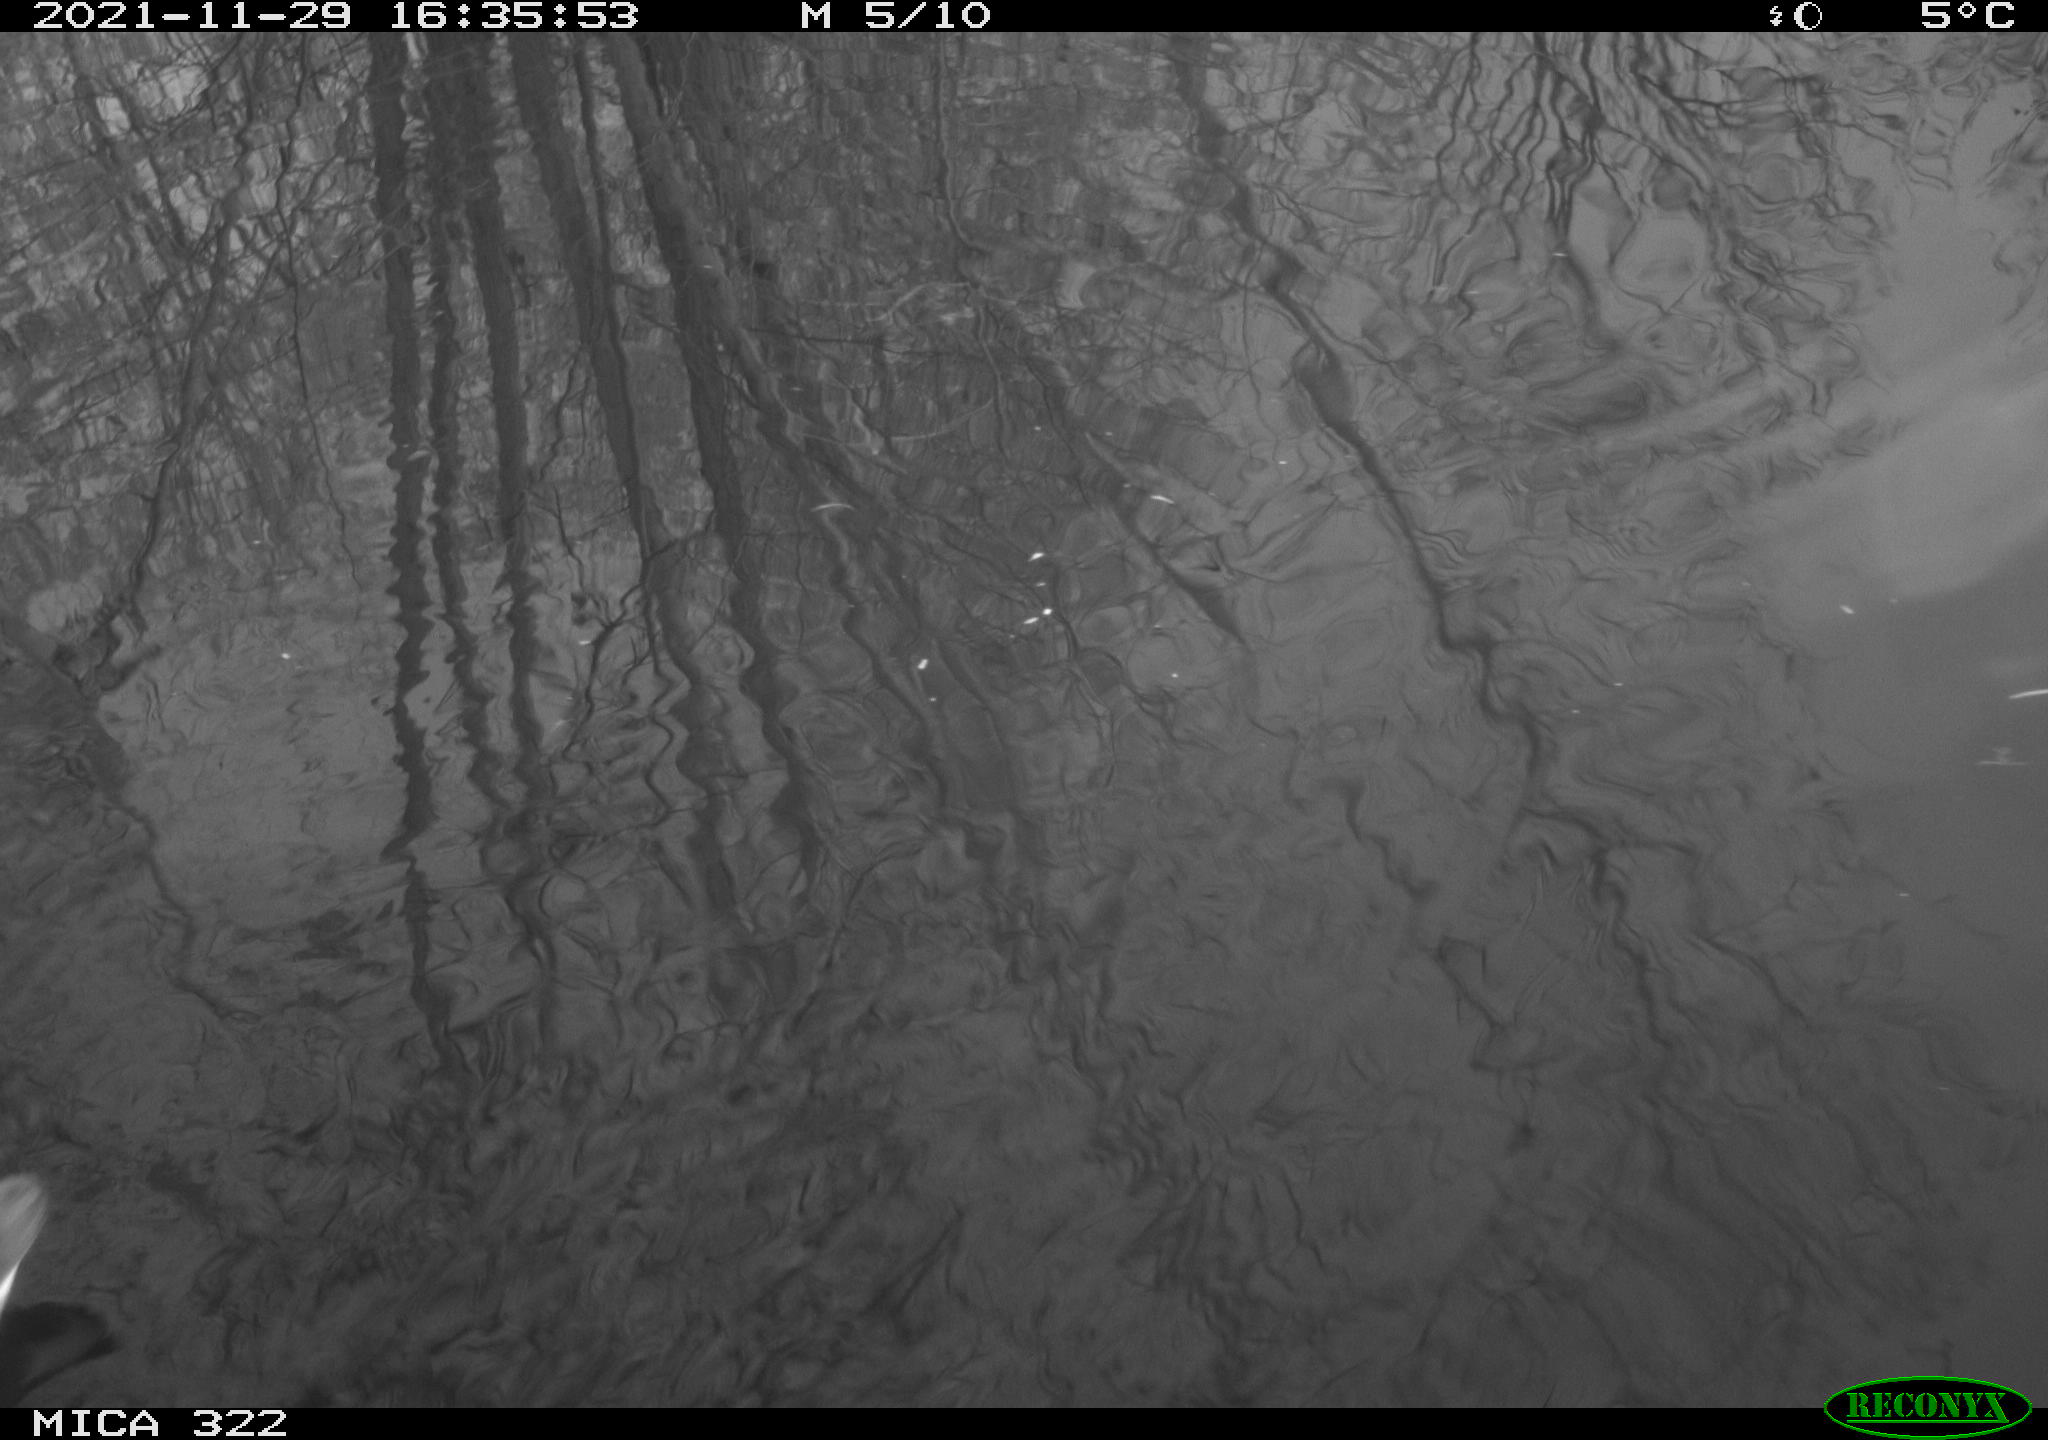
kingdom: Animalia
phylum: Chordata
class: Aves
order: Gruiformes
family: Rallidae
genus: Gallinula
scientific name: Gallinula chloropus
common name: Common moorhen
